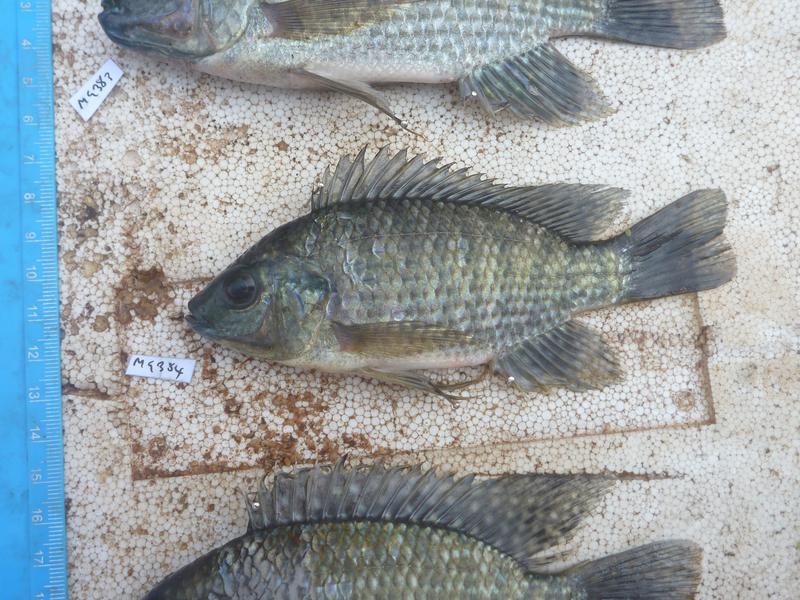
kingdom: Animalia
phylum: Chordata
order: Perciformes
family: Cichlidae
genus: Oreochromis
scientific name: Oreochromis leucostictus
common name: Blue spotted tilapia
